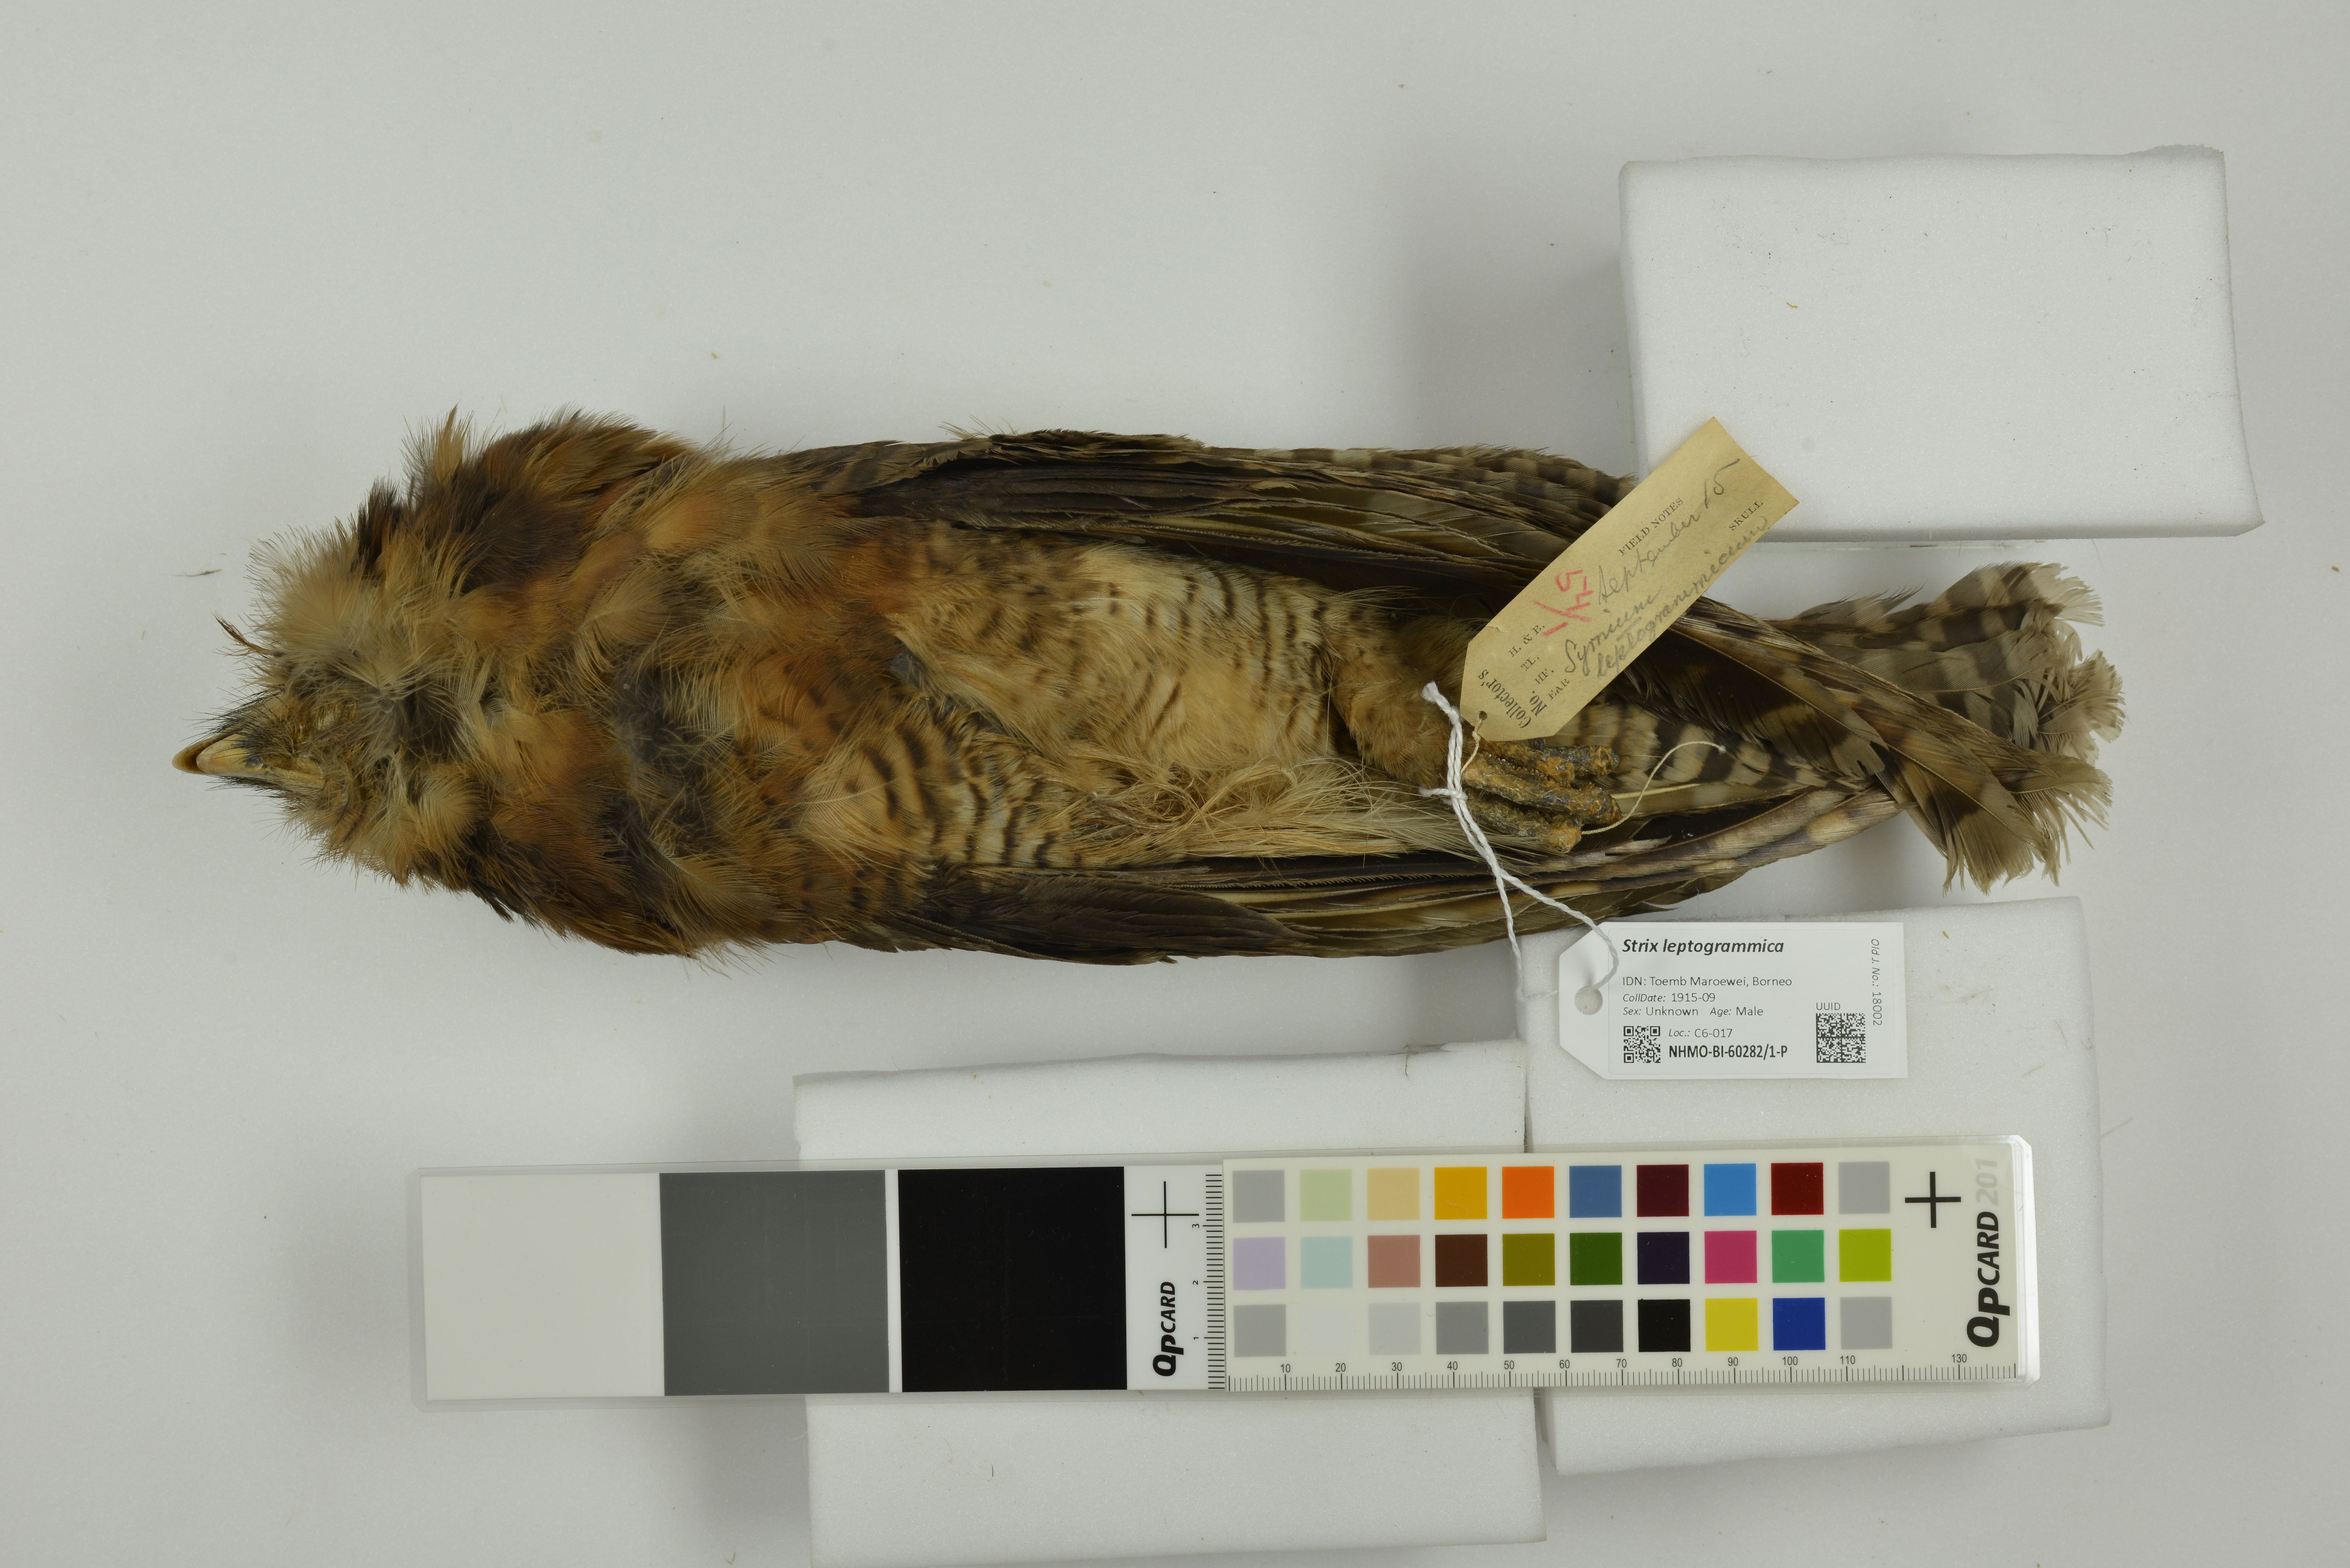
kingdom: Animalia
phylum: Chordata
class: Aves
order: Strigiformes
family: Strigidae
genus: Strix
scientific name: Strix leptogrammica
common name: Brown wood owl
